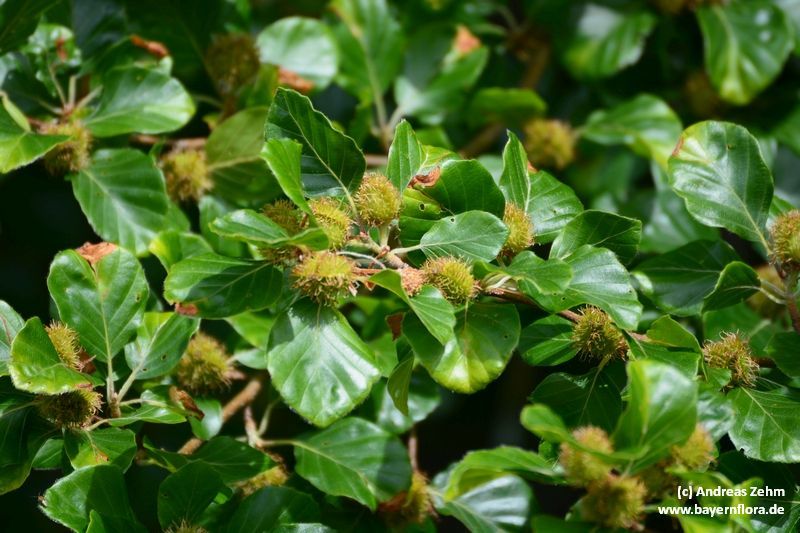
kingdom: Plantae
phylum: Tracheophyta
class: Magnoliopsida
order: Fagales
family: Fagaceae
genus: Fagus
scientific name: Fagus sylvatica
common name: Beech
